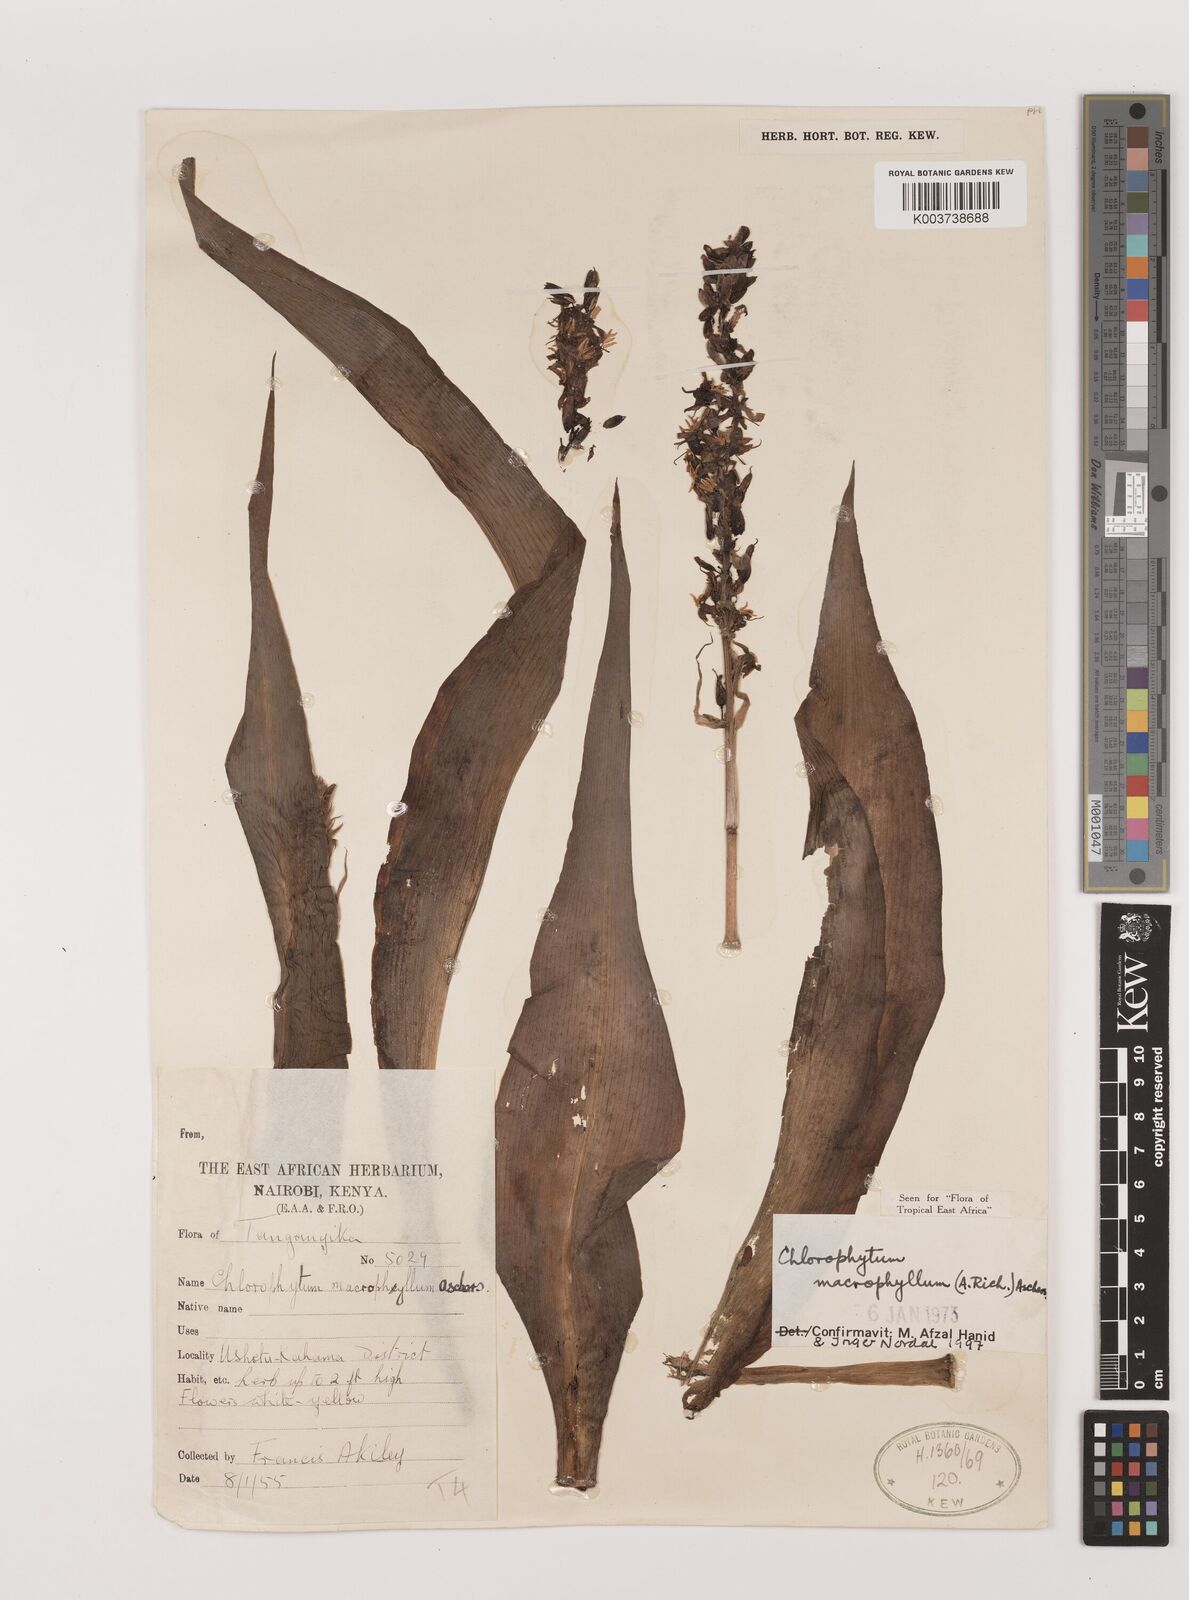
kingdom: Plantae
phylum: Tracheophyta
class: Liliopsida
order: Asparagales
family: Asparagaceae
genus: Chlorophytum
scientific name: Chlorophytum macrophyllum
